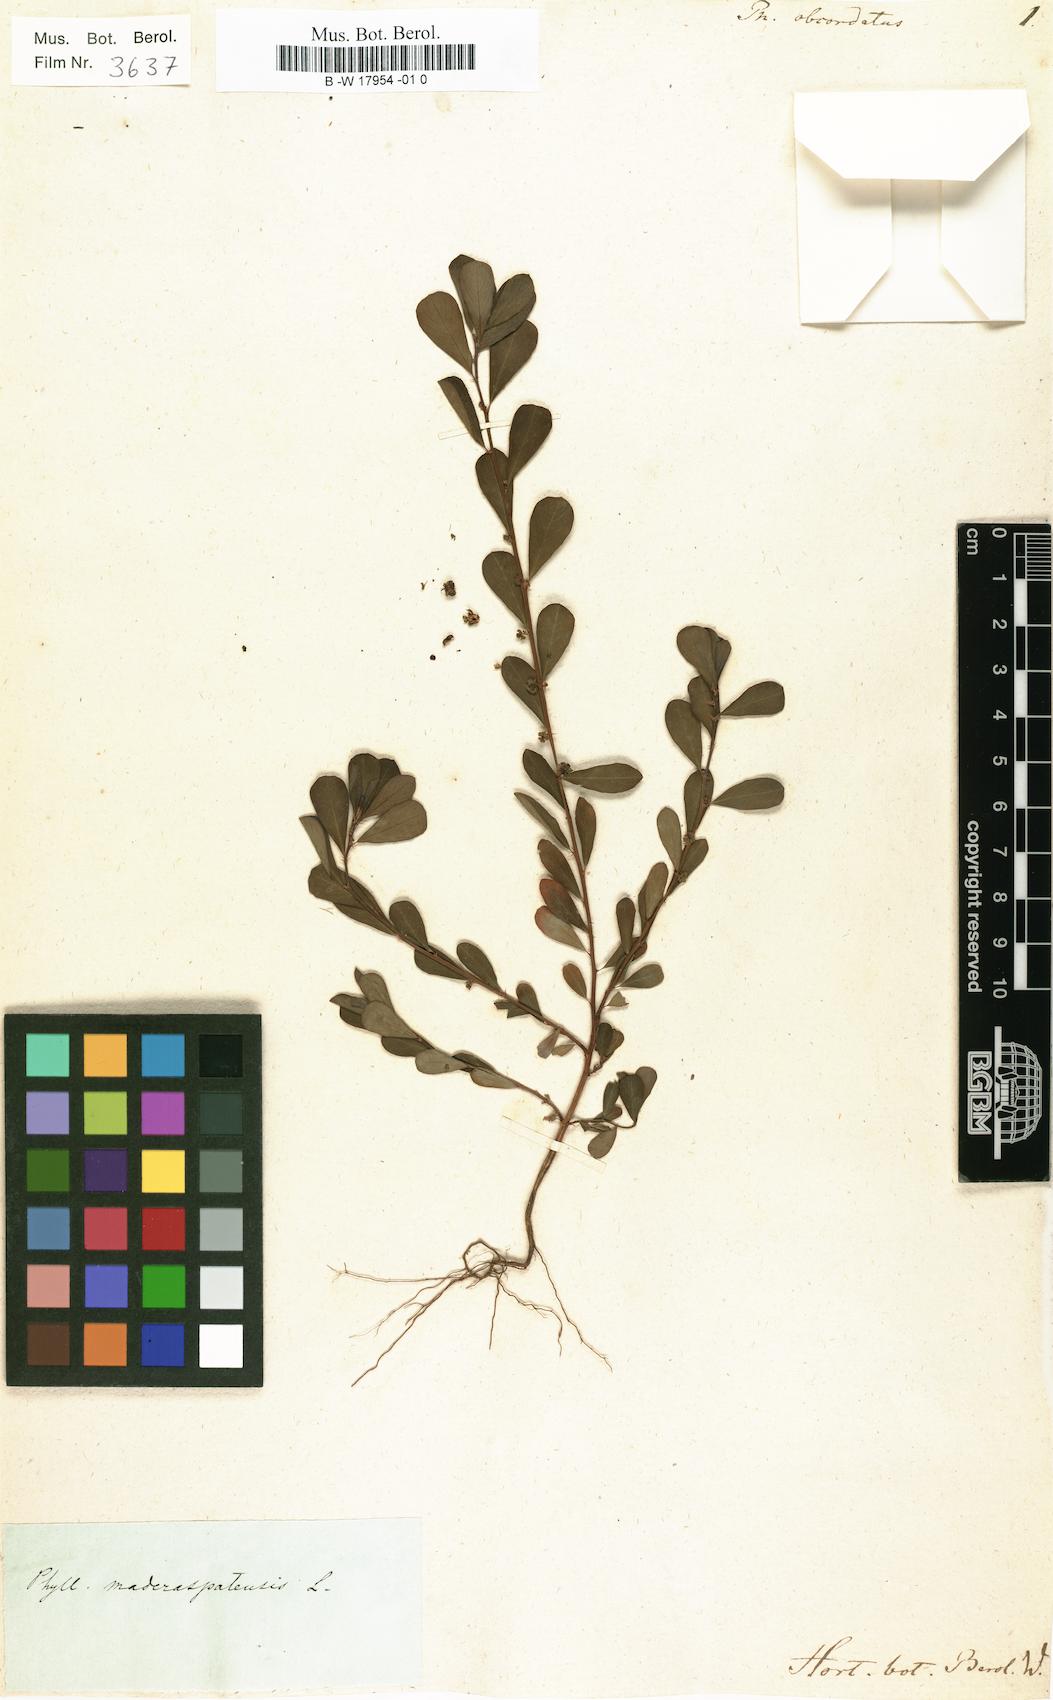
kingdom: Plantae
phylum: Tracheophyta
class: Magnoliopsida
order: Malpighiales
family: Phyllanthaceae
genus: Phyllanthus
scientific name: Phyllanthus maderaspatensis
